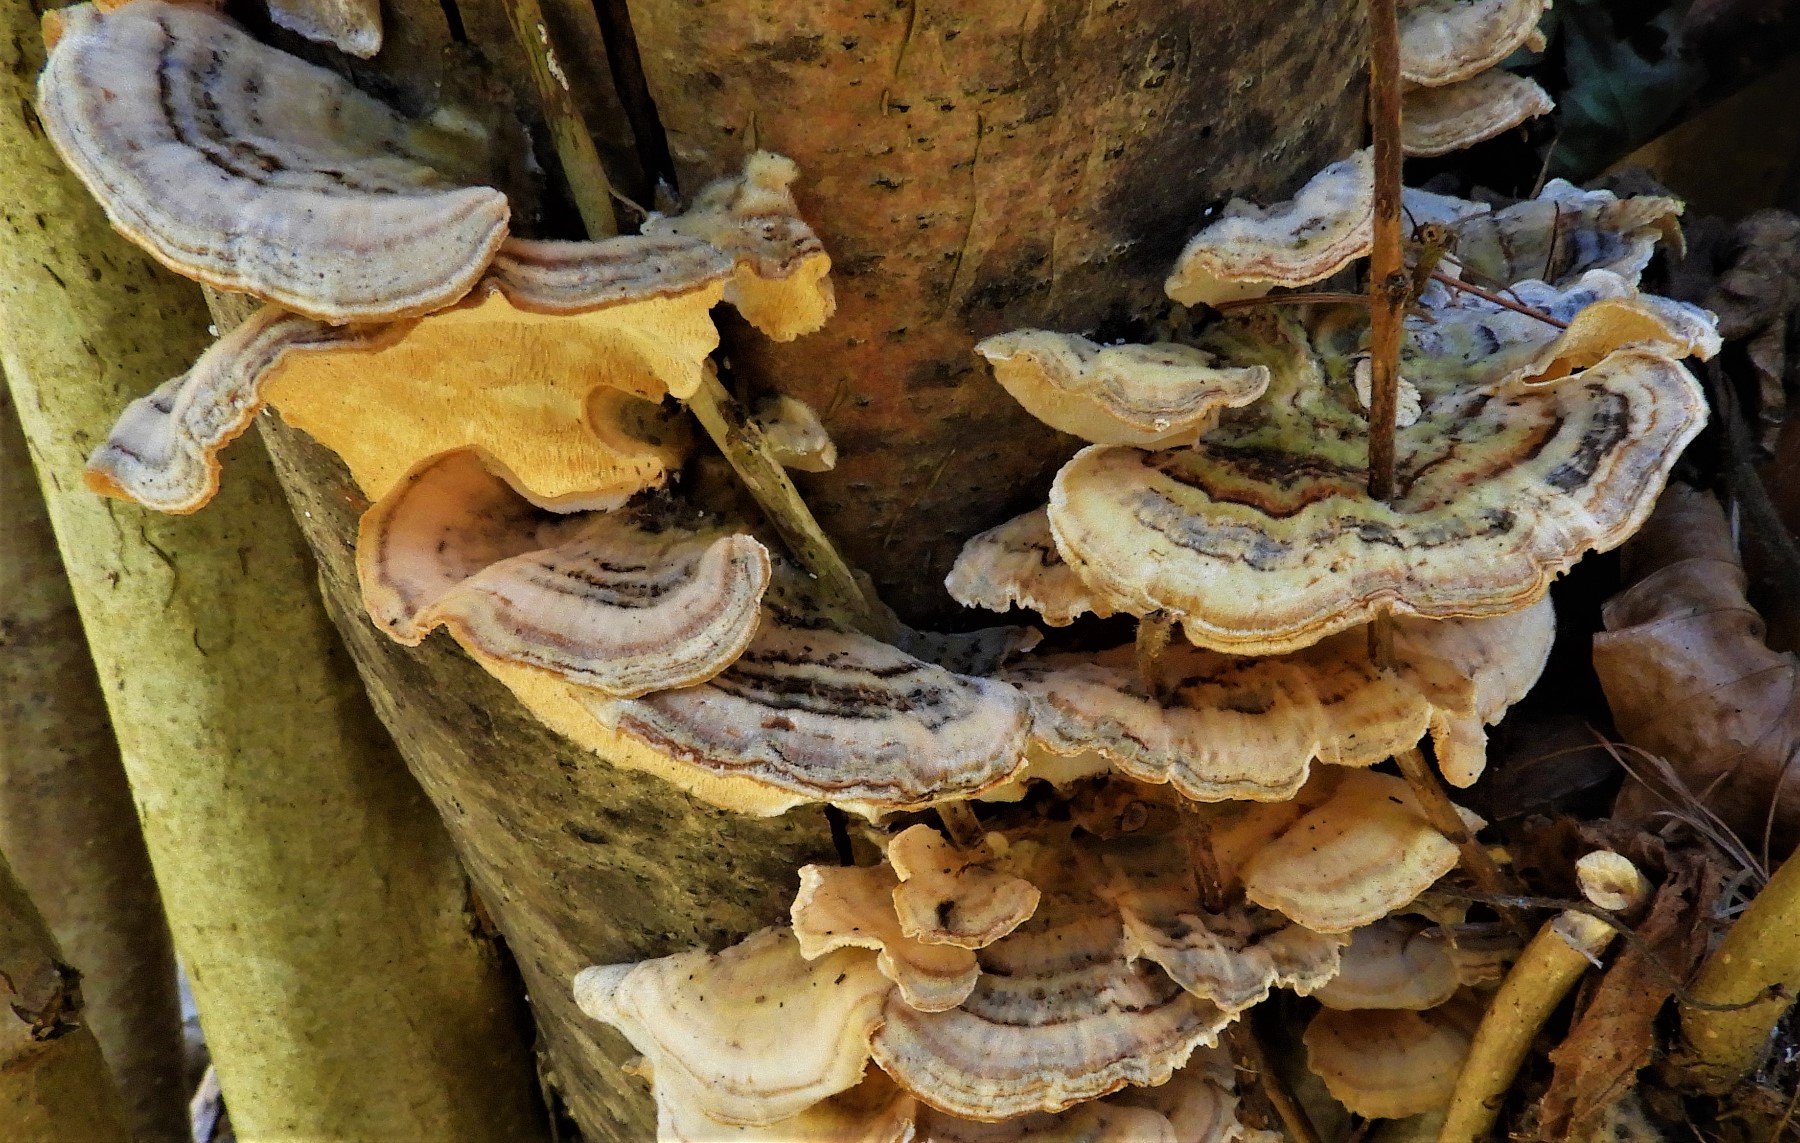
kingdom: Fungi
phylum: Basidiomycota
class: Agaricomycetes
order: Polyporales
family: Polyporaceae
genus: Trametes
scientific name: Trametes versicolor
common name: broget læderporesvamp
